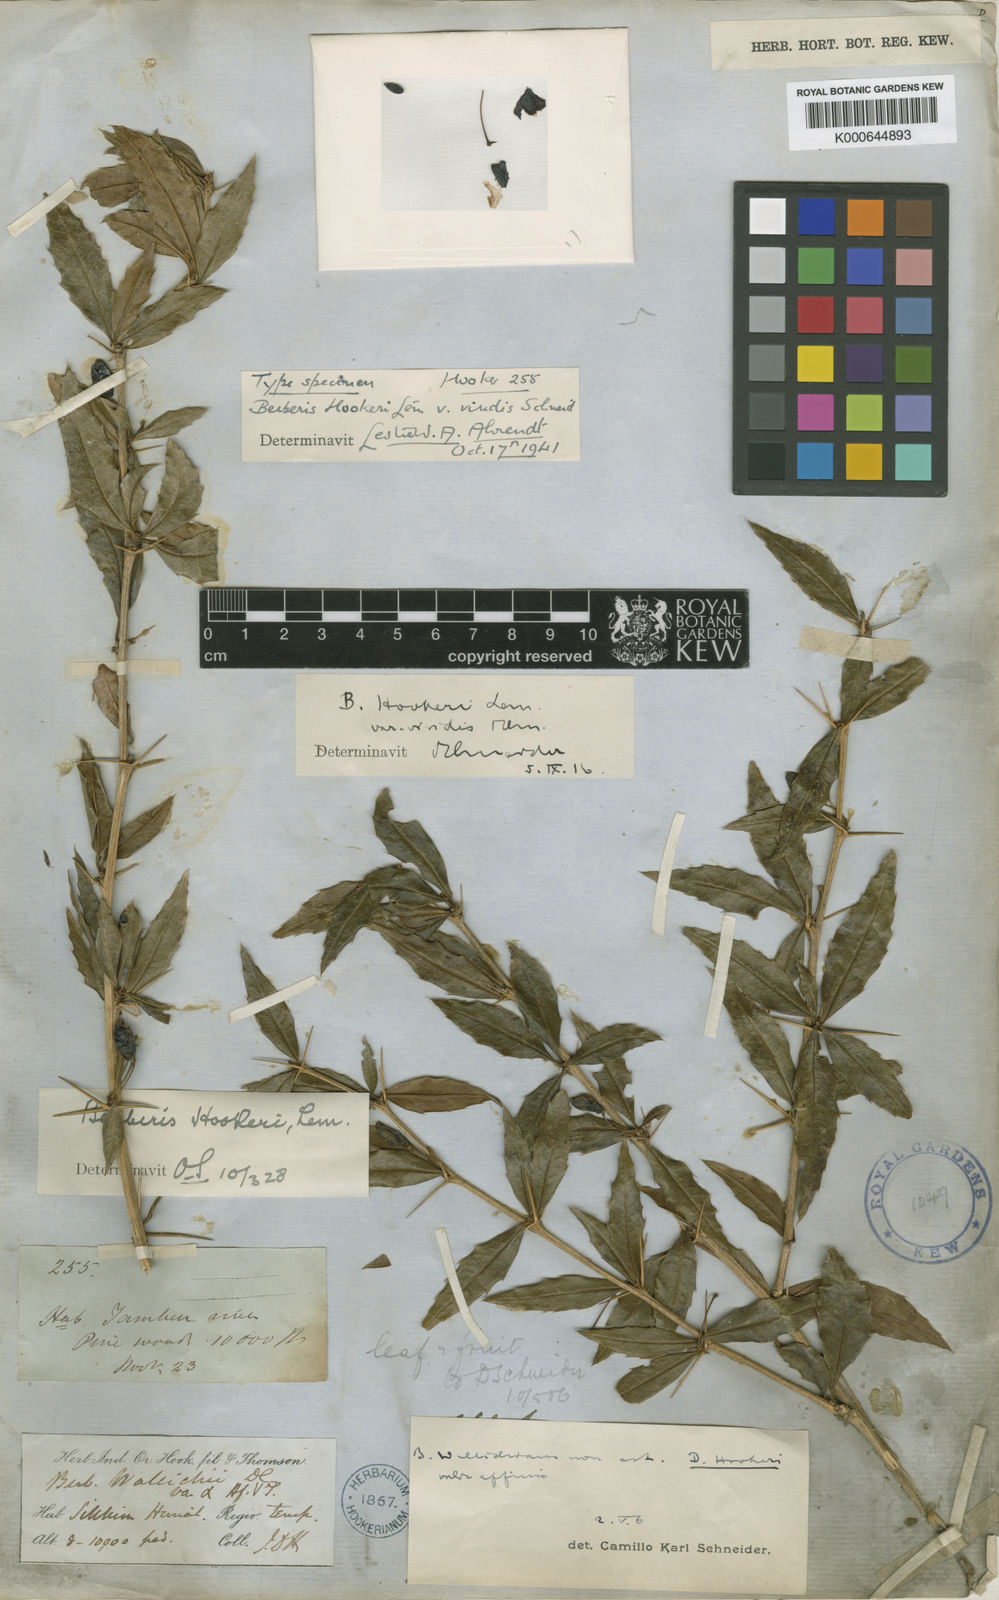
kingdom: Plantae
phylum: Tracheophyta
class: Magnoliopsida
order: Ranunculales
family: Berberidaceae
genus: Berberis
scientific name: Berberis hookeri
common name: Hooker's barberry
